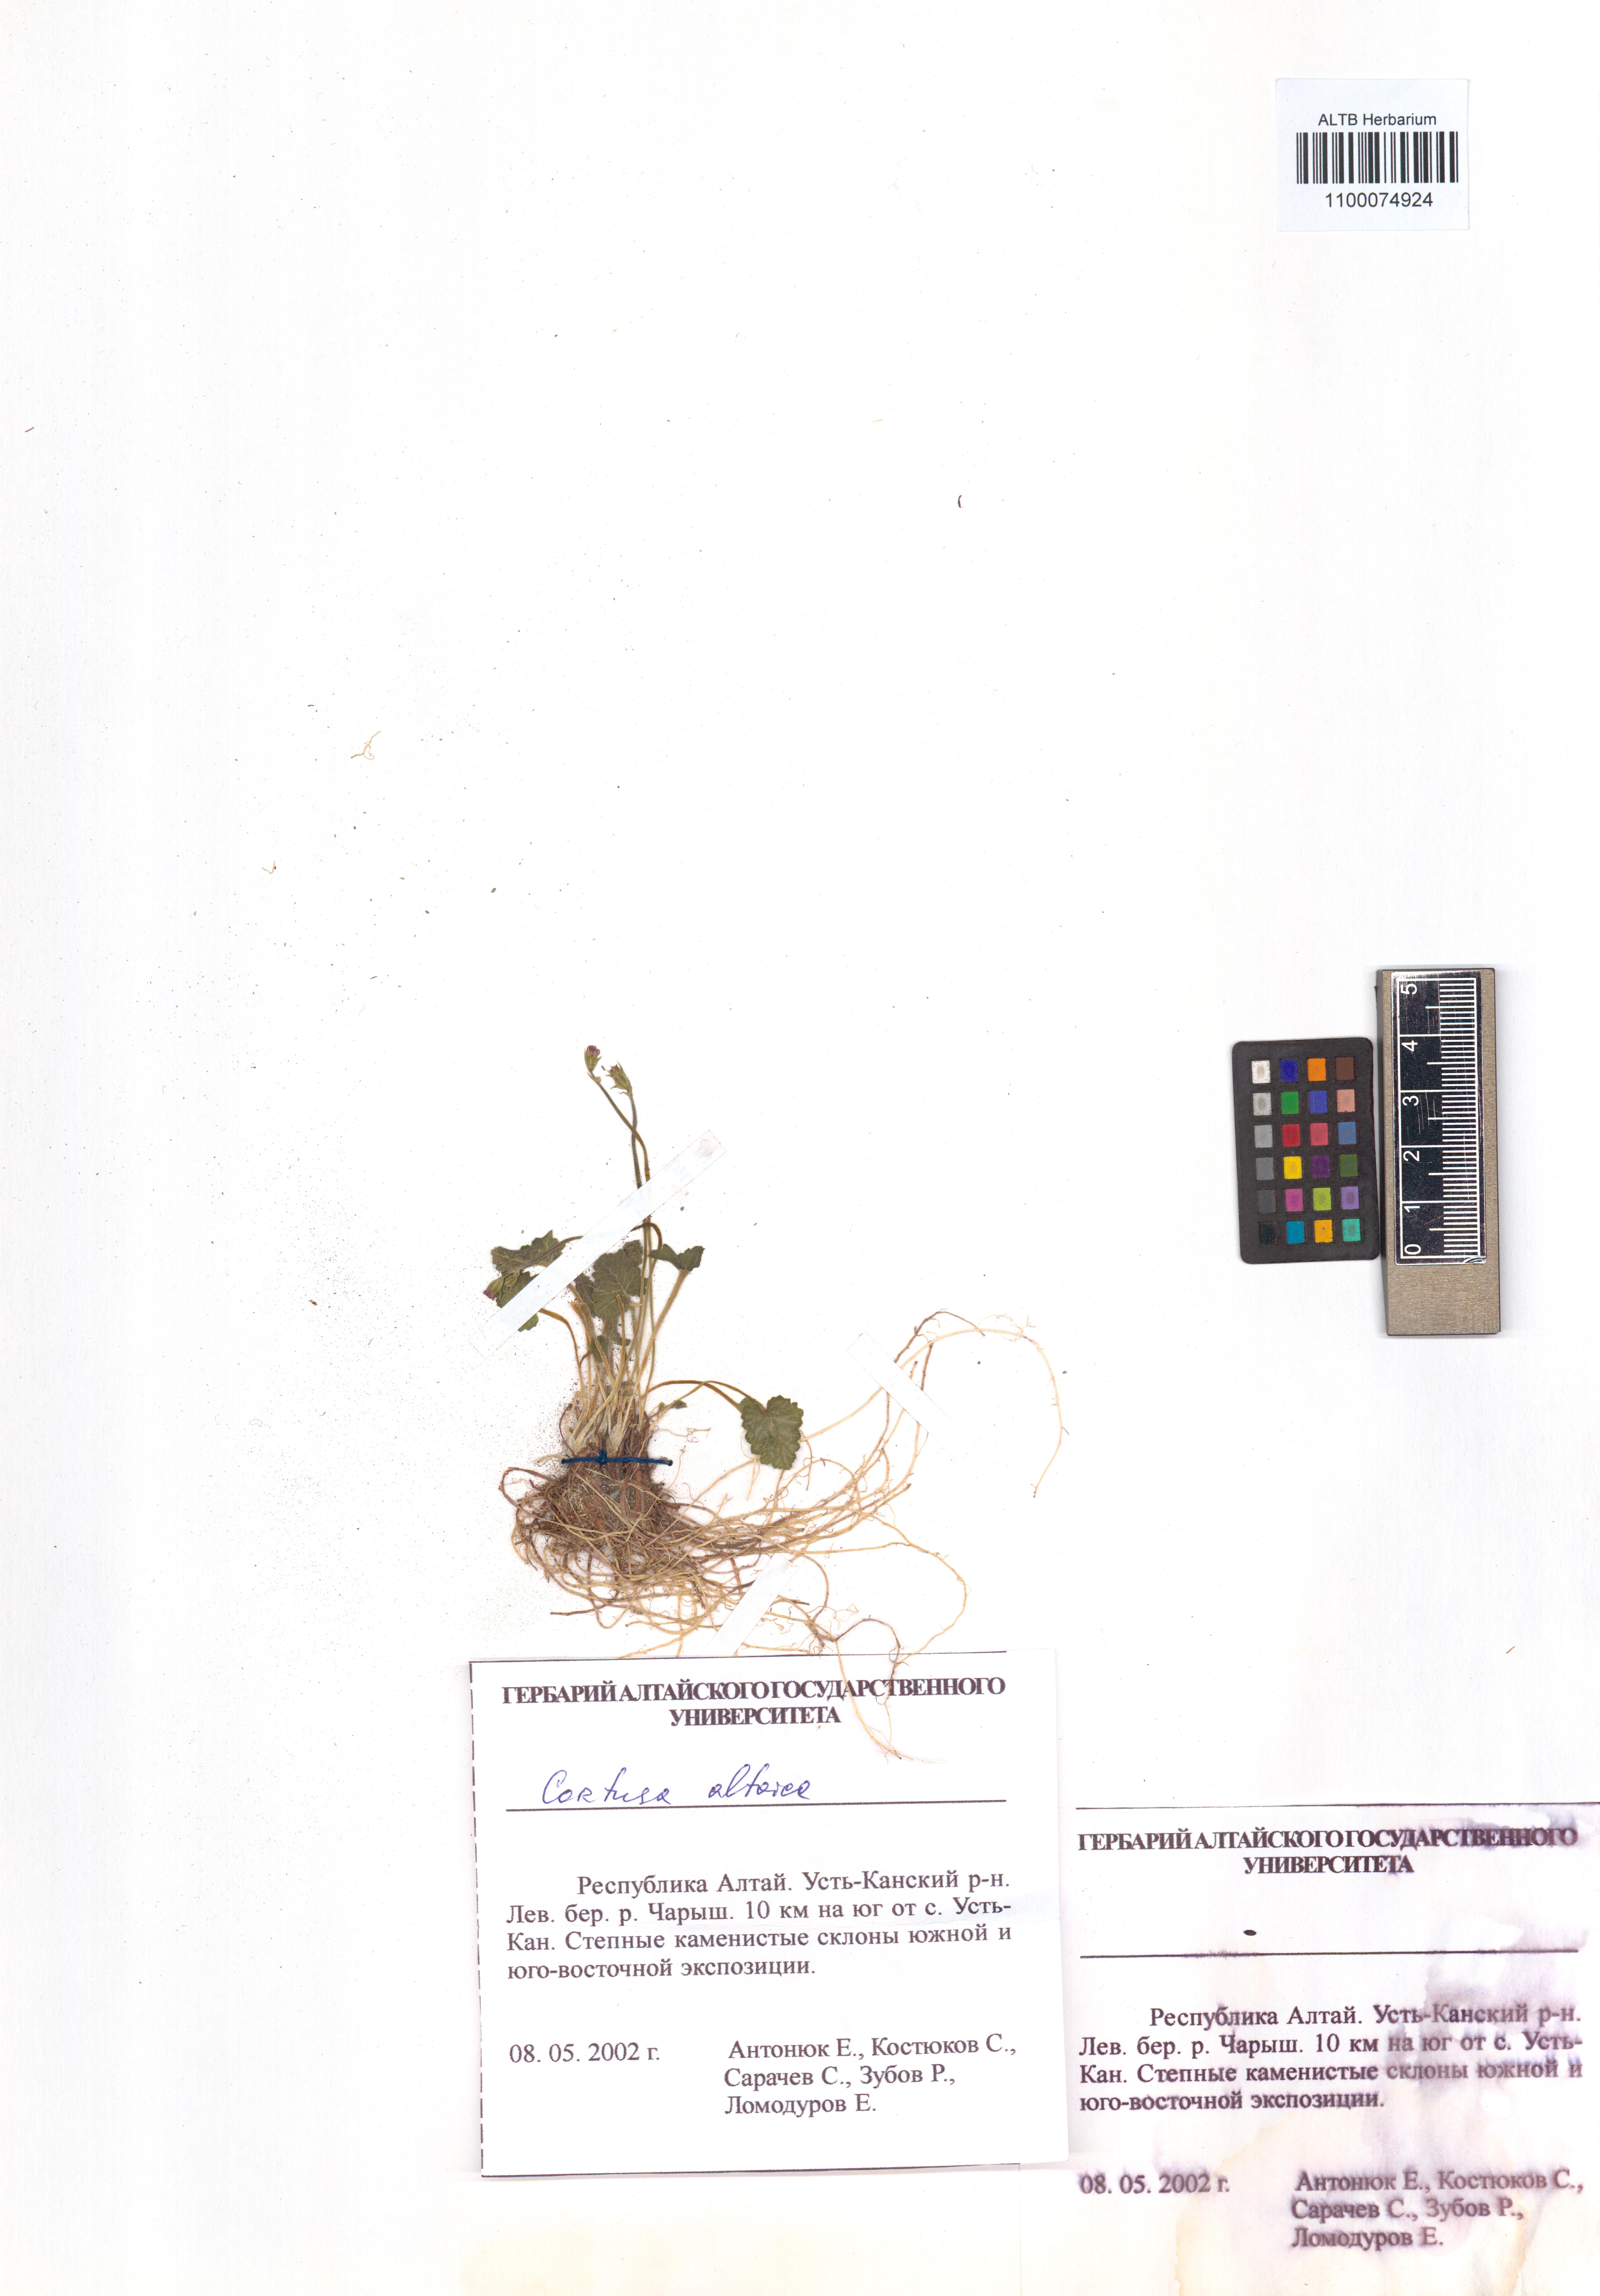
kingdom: Plantae
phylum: Tracheophyta
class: Magnoliopsida
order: Ericales
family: Primulaceae
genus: Primula
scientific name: Primula matthioli
